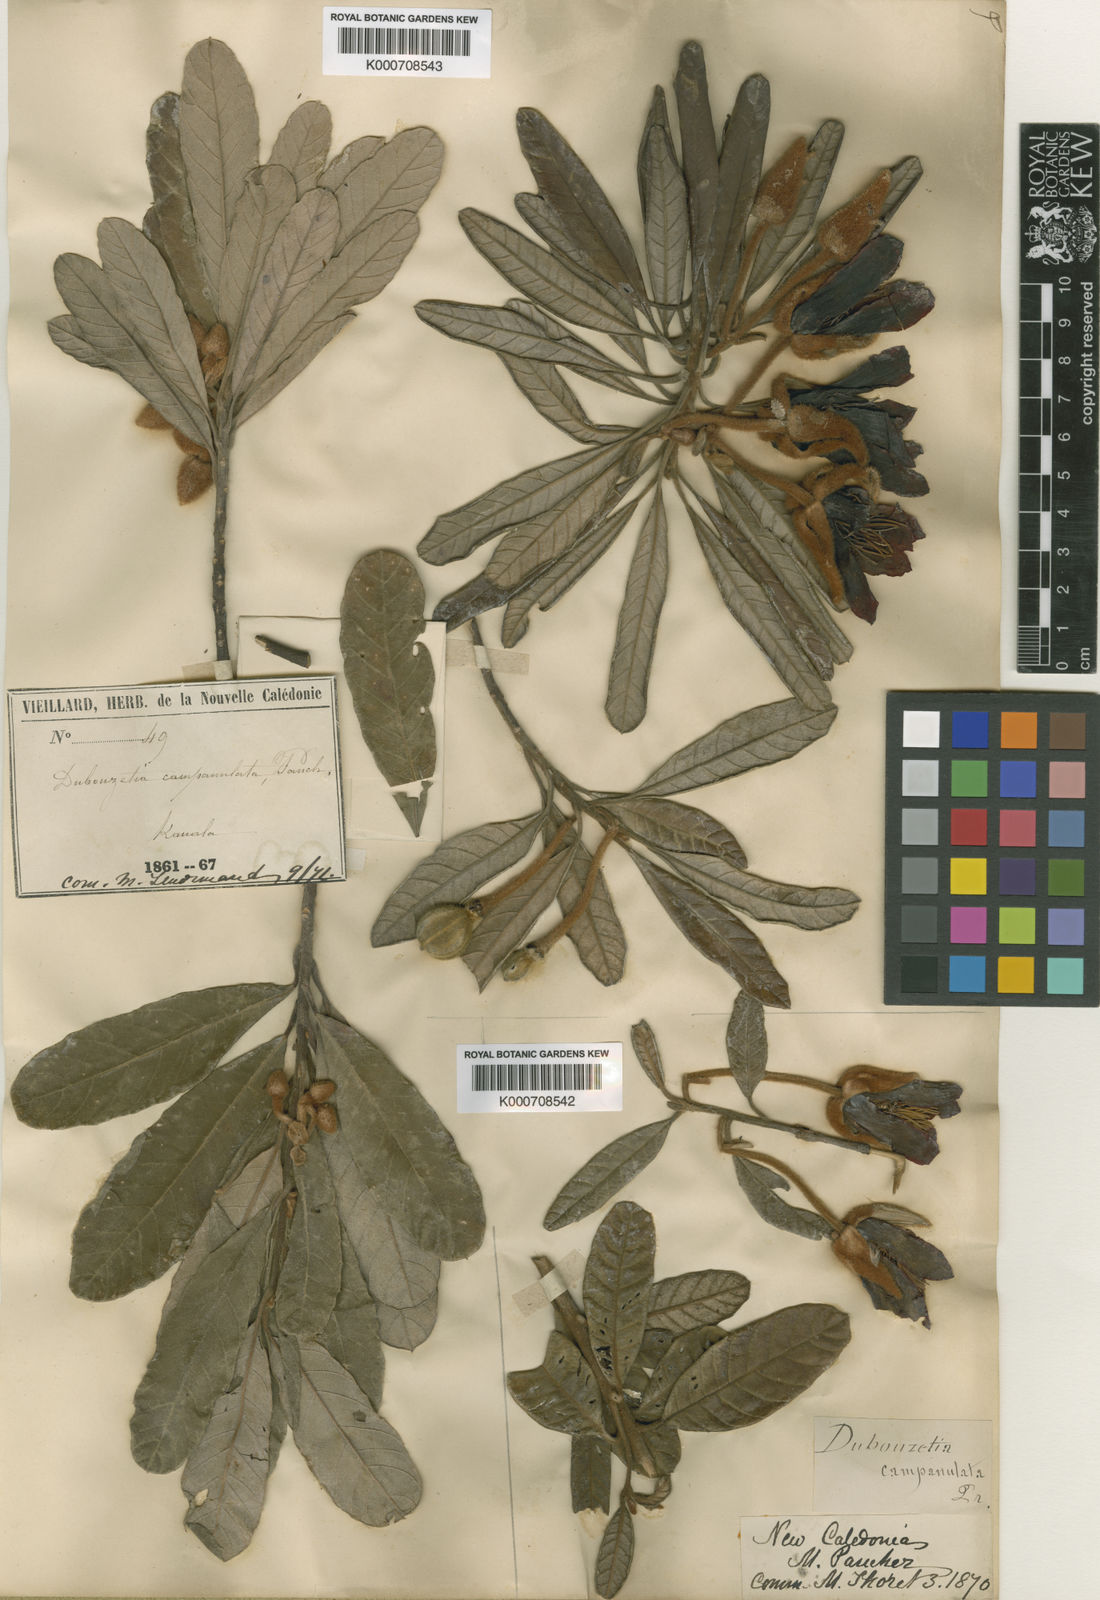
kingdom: Plantae
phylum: Tracheophyta
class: Magnoliopsida
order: Oxalidales
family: Elaeocarpaceae
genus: Dubouzetia
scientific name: Dubouzetia campanulata
